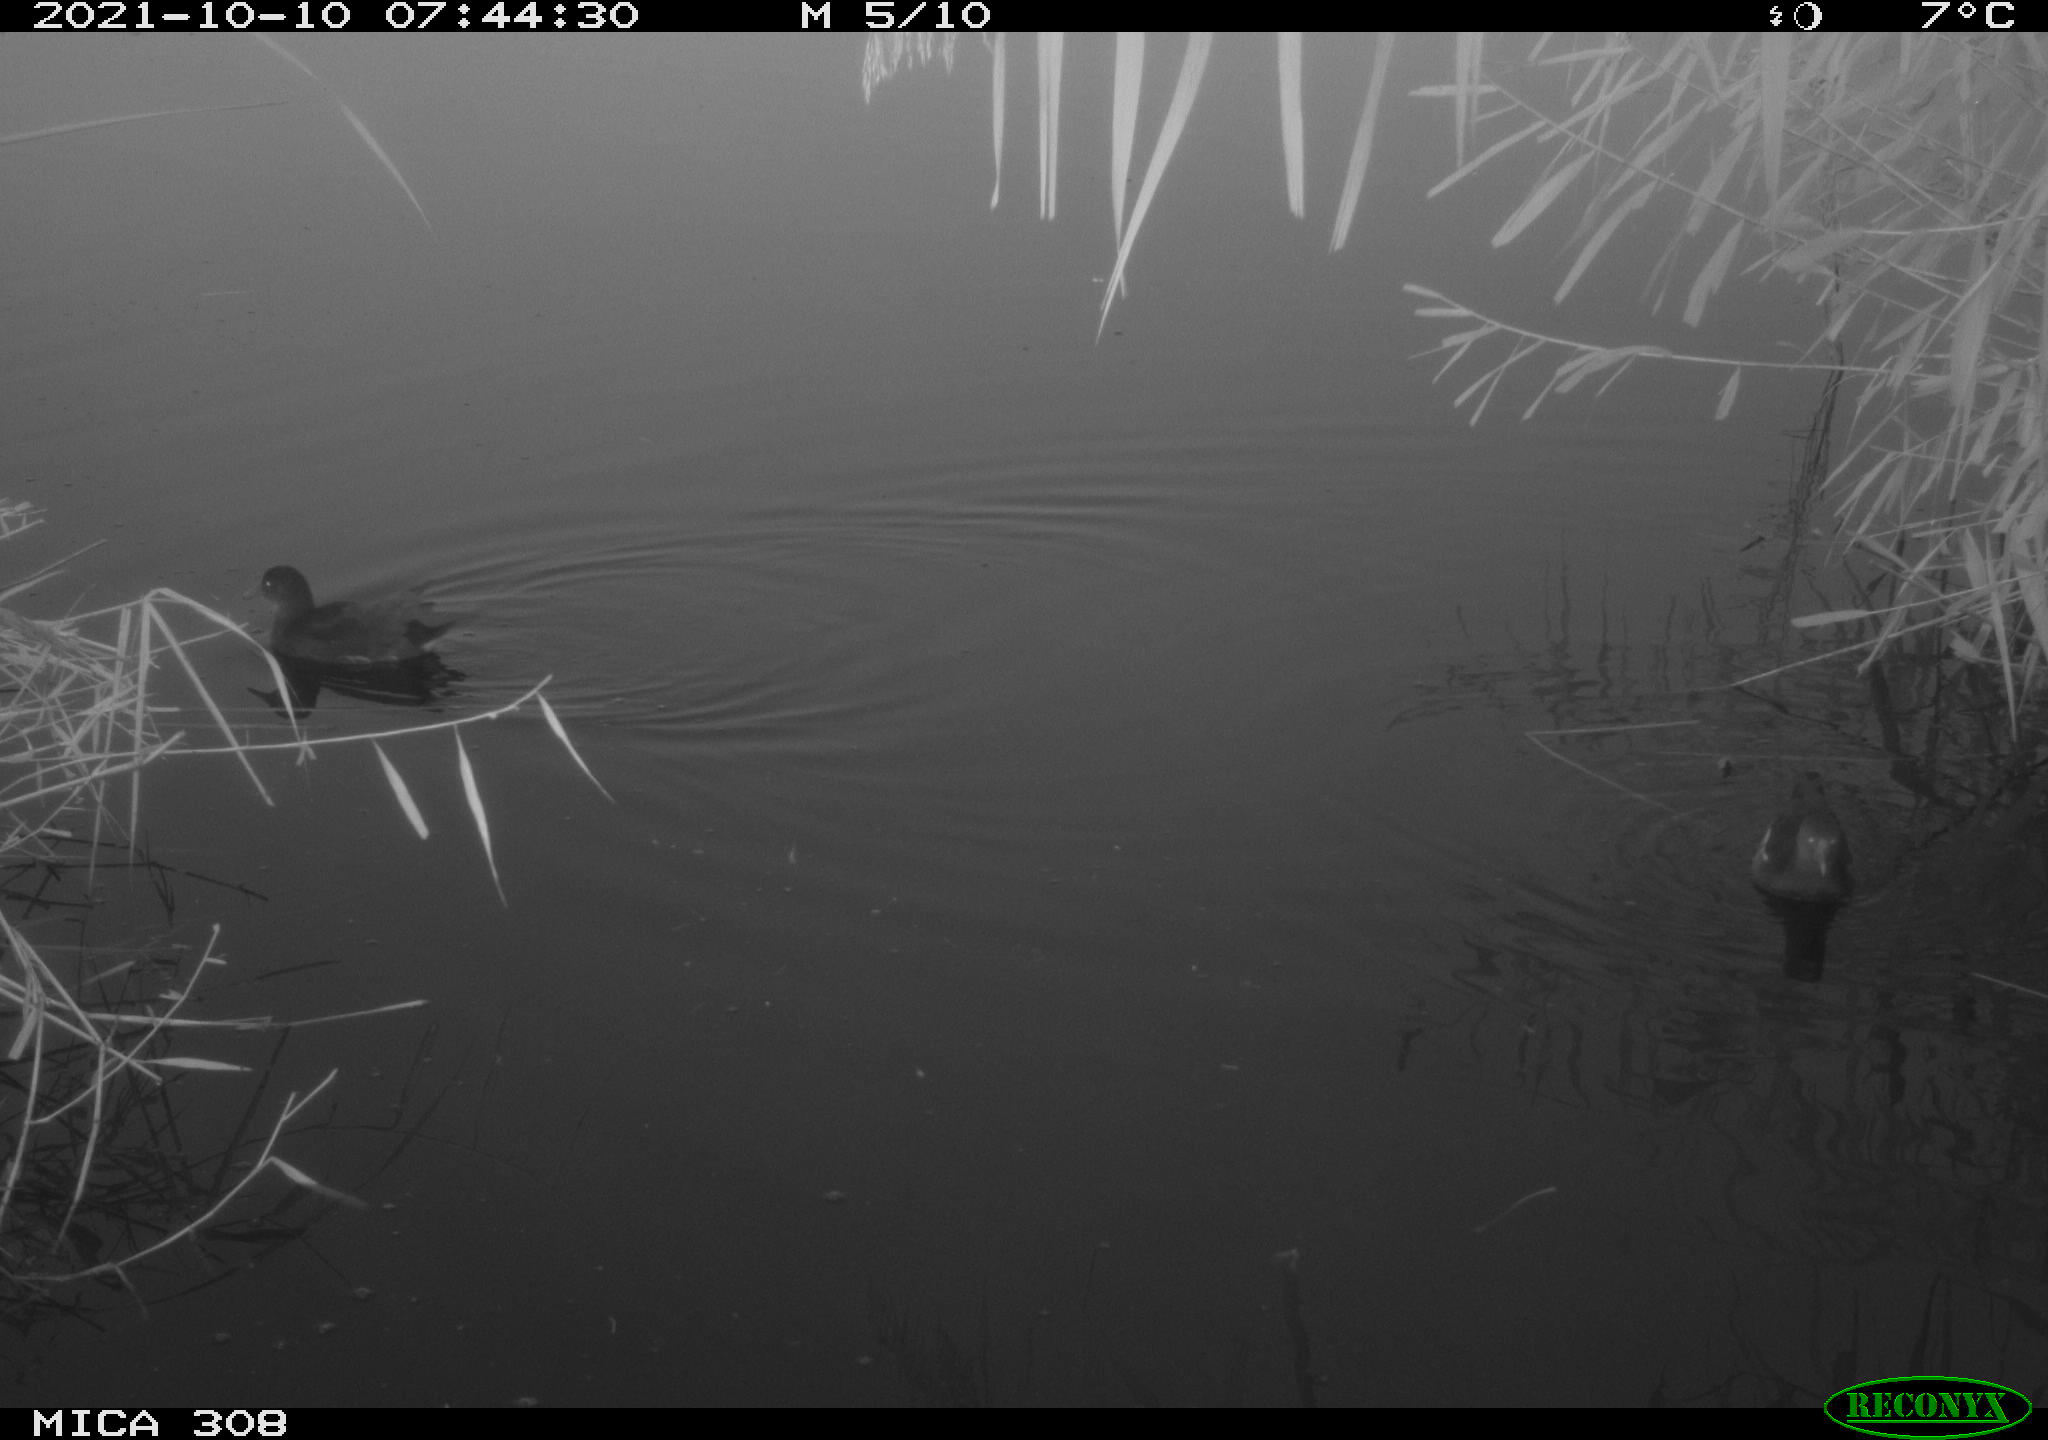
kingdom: Animalia
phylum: Chordata
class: Aves
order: Gruiformes
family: Rallidae
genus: Gallinula
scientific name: Gallinula chloropus
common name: Common moorhen
